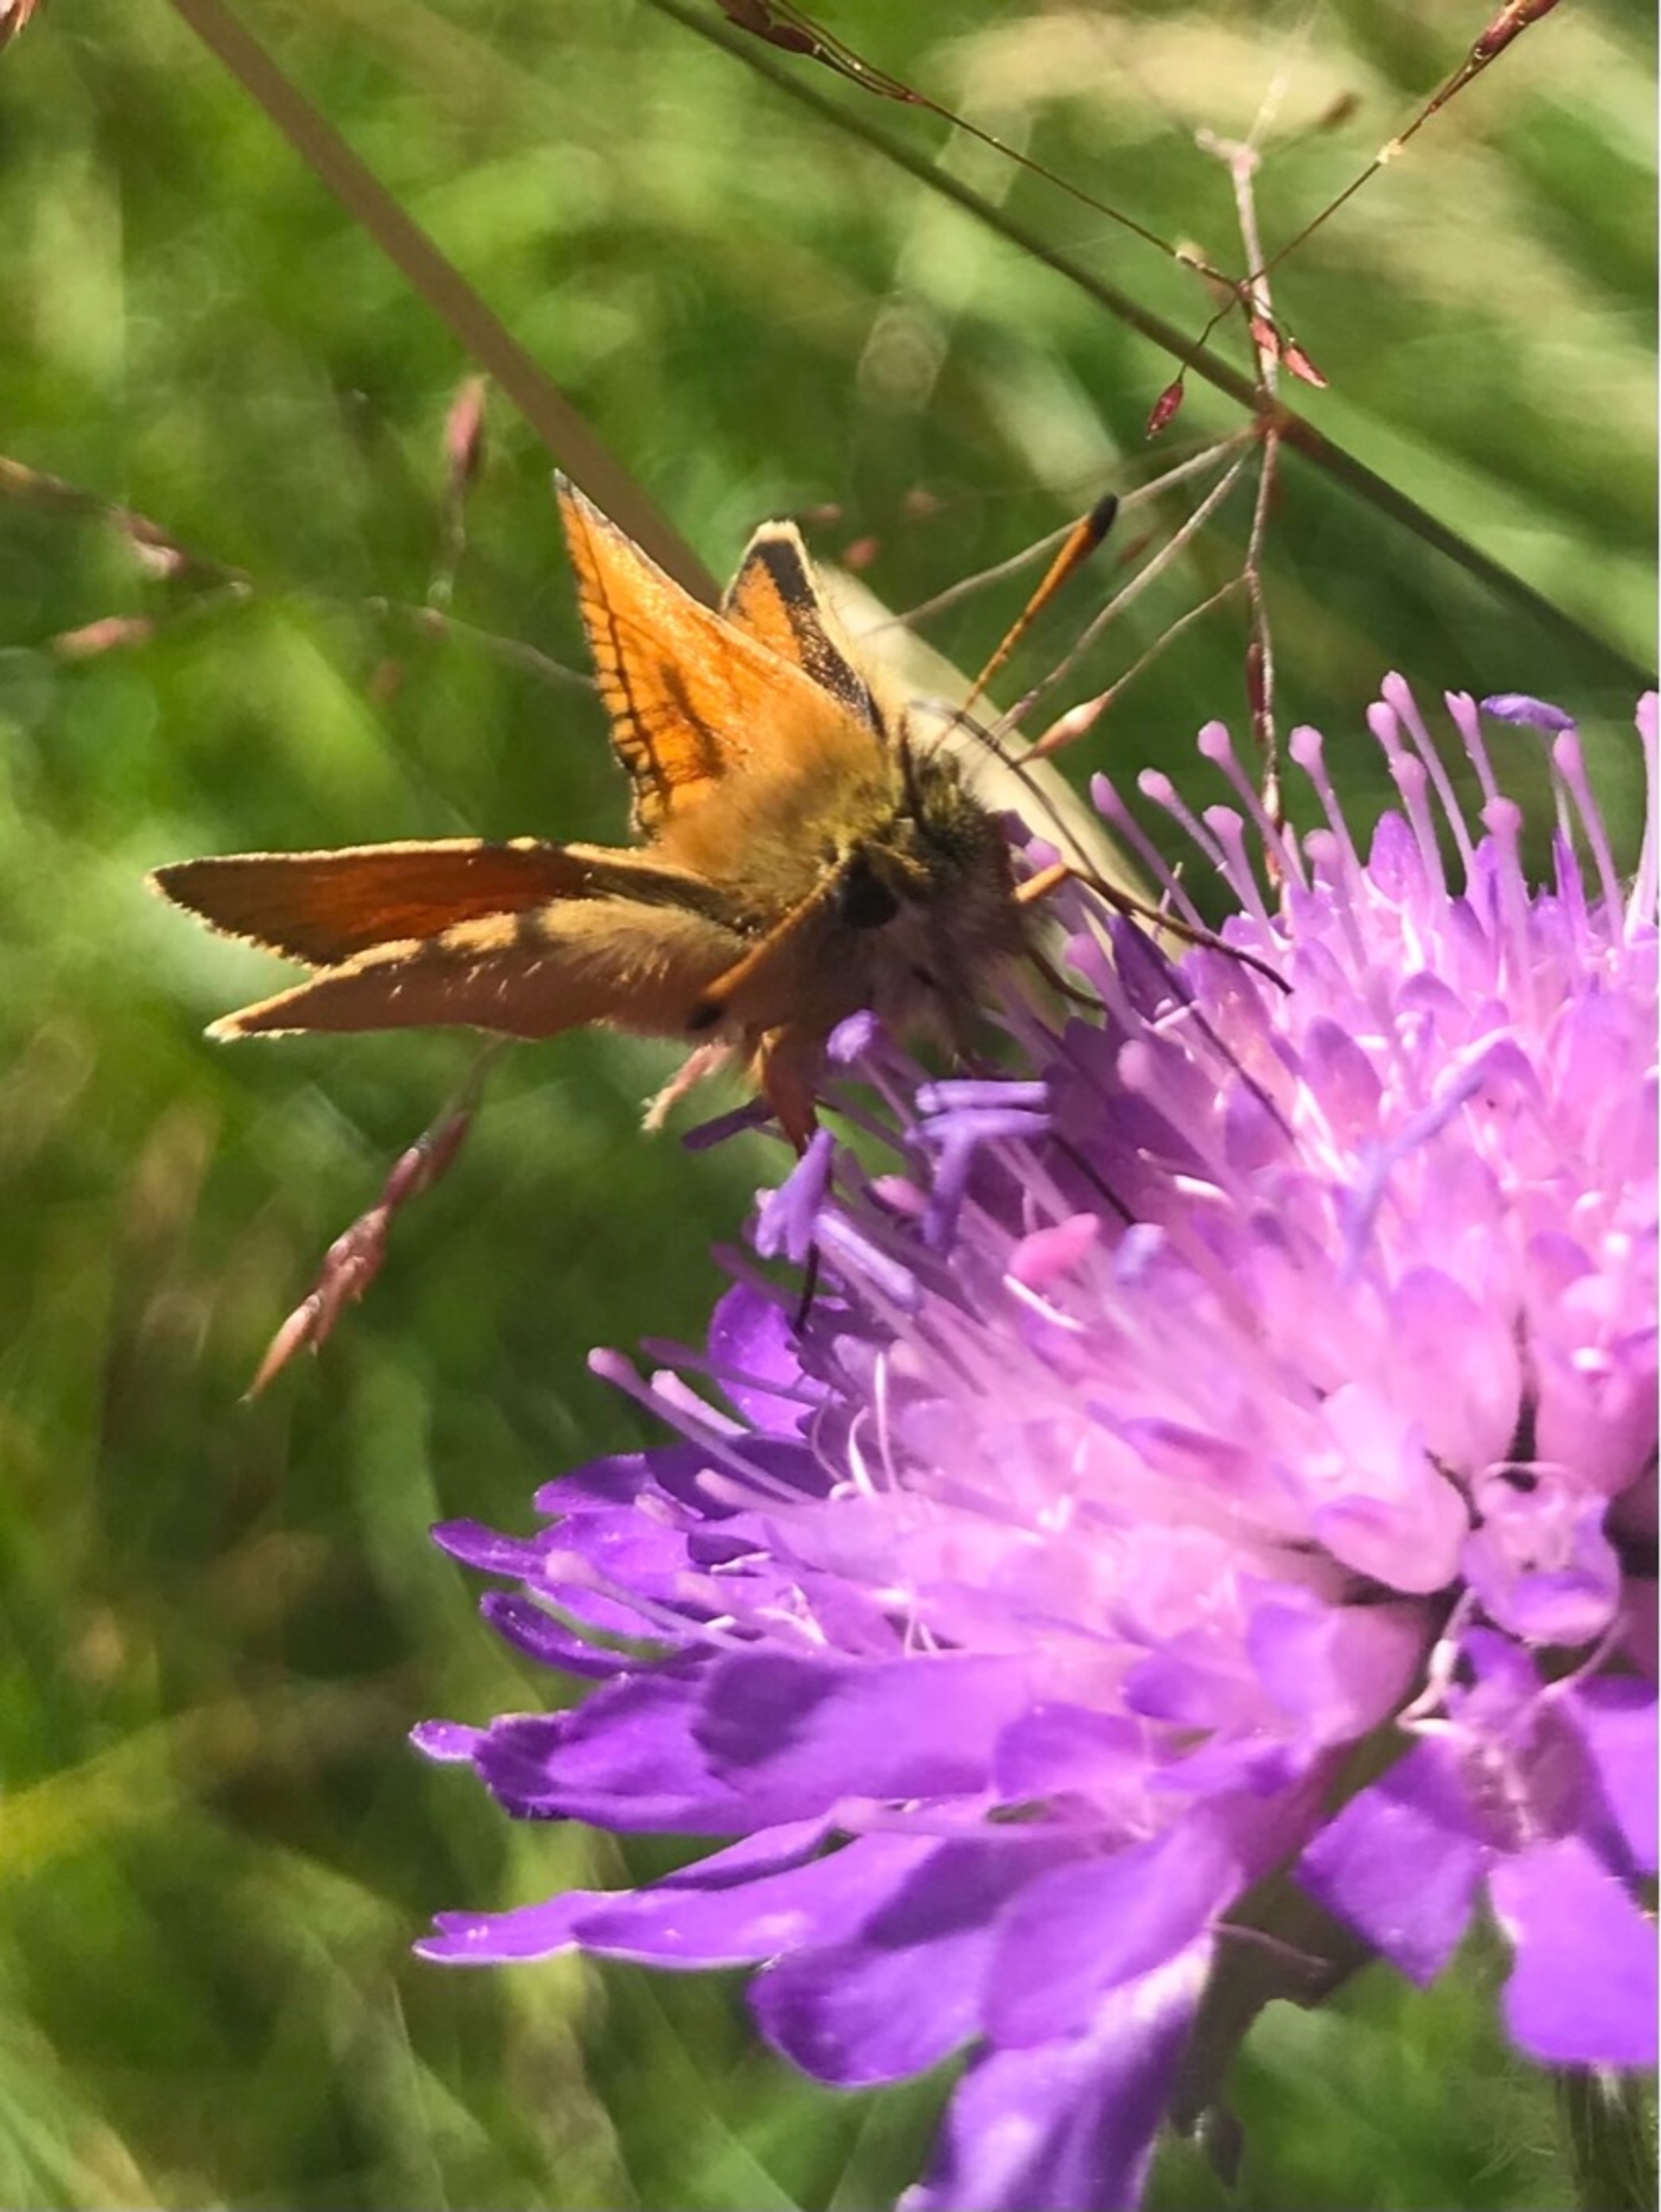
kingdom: Animalia
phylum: Arthropoda
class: Insecta
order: Lepidoptera
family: Hesperiidae
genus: Thymelicus
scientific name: Thymelicus lineola
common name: Stregbredpande
